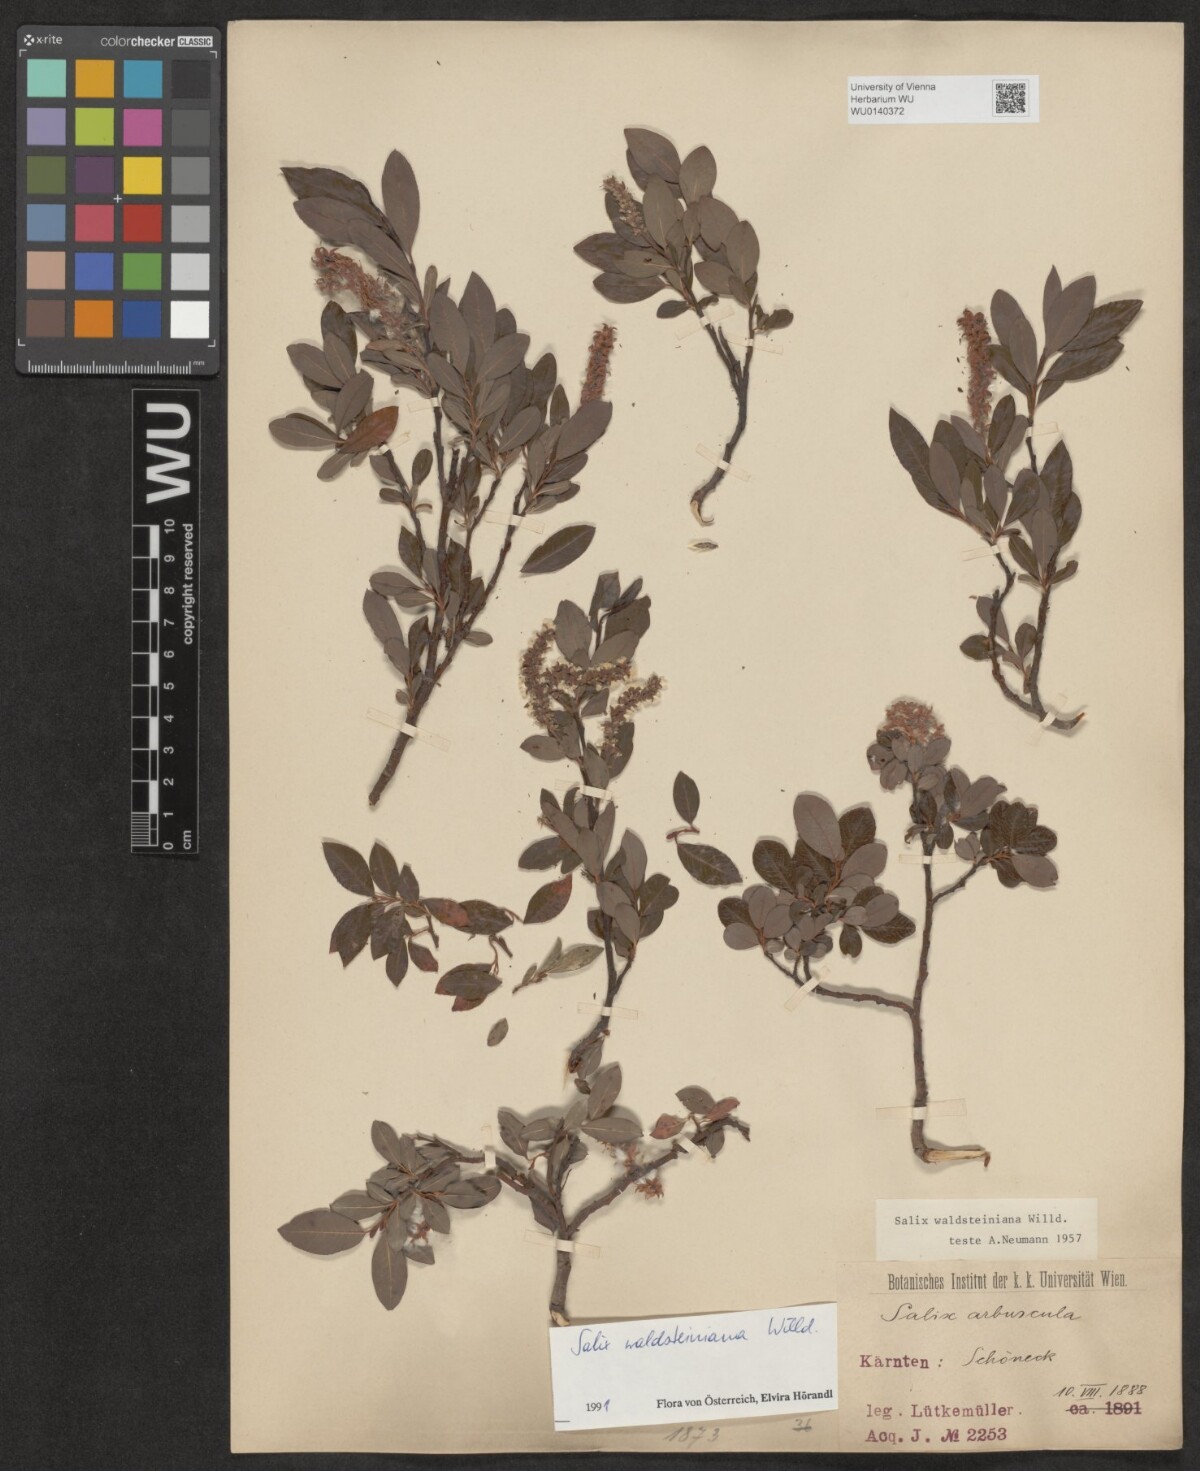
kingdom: Plantae
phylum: Tracheophyta
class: Magnoliopsida
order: Malpighiales
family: Salicaceae
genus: Salix
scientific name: Salix waldsteiniana
